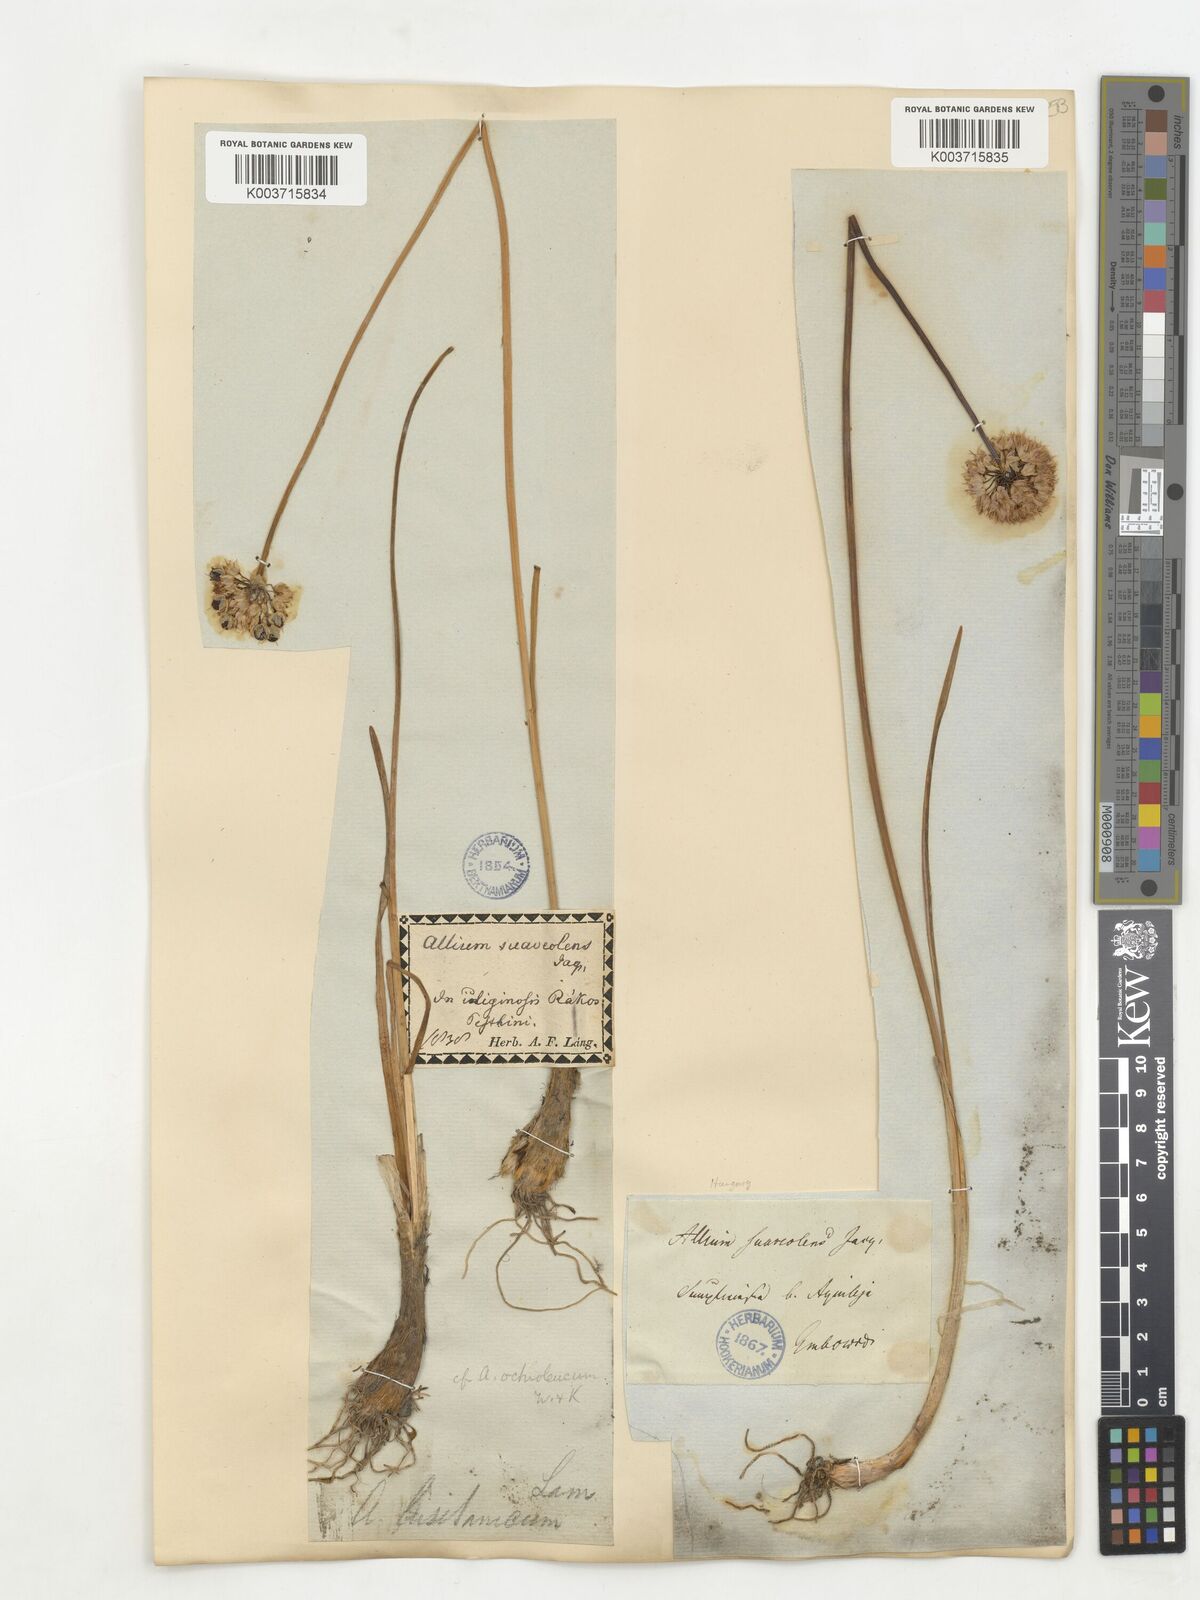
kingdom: Plantae
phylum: Tracheophyta
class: Liliopsida
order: Asparagales
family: Amaryllidaceae
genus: Allium
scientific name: Allium suaveolens
